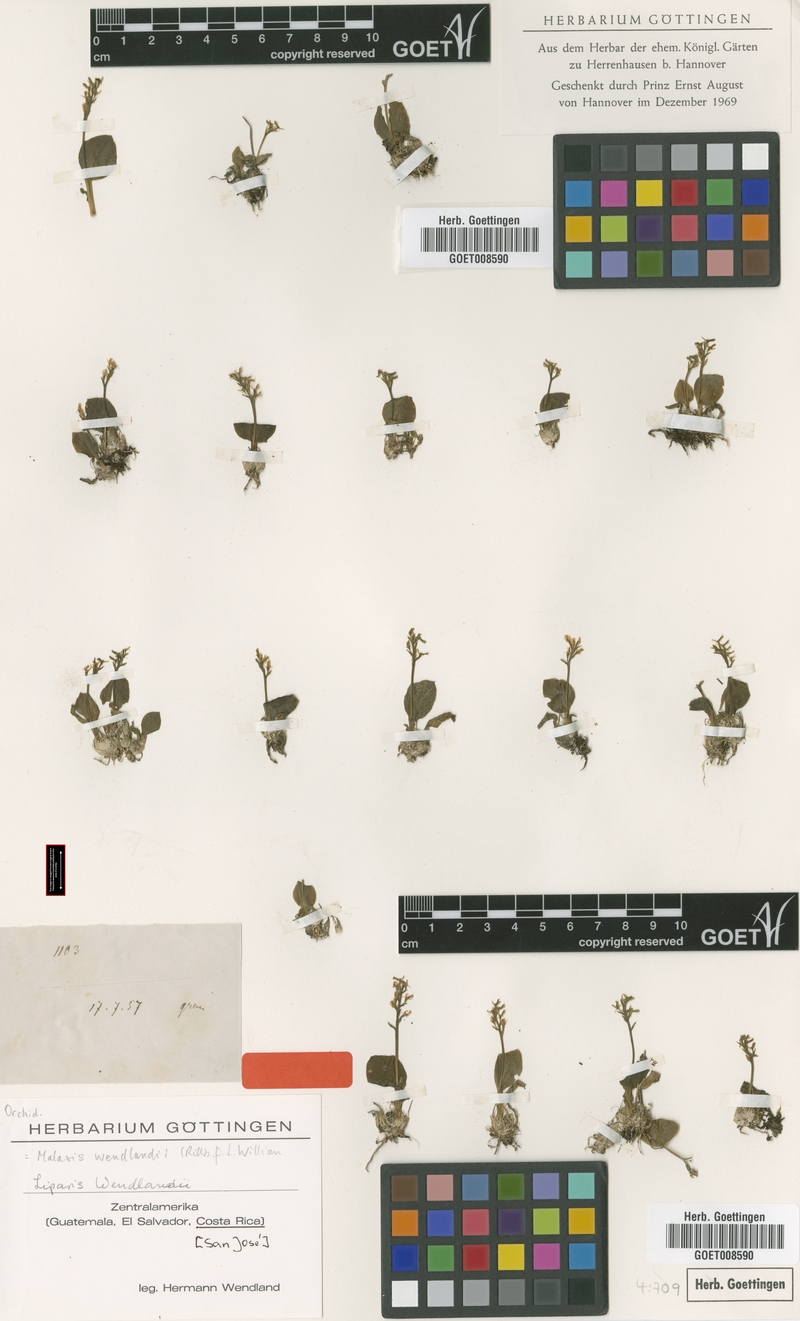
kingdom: Plantae
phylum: Tracheophyta
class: Liliopsida
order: Asparagales
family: Orchidaceae
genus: Crossoliparis
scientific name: Crossoliparis wendlandii
